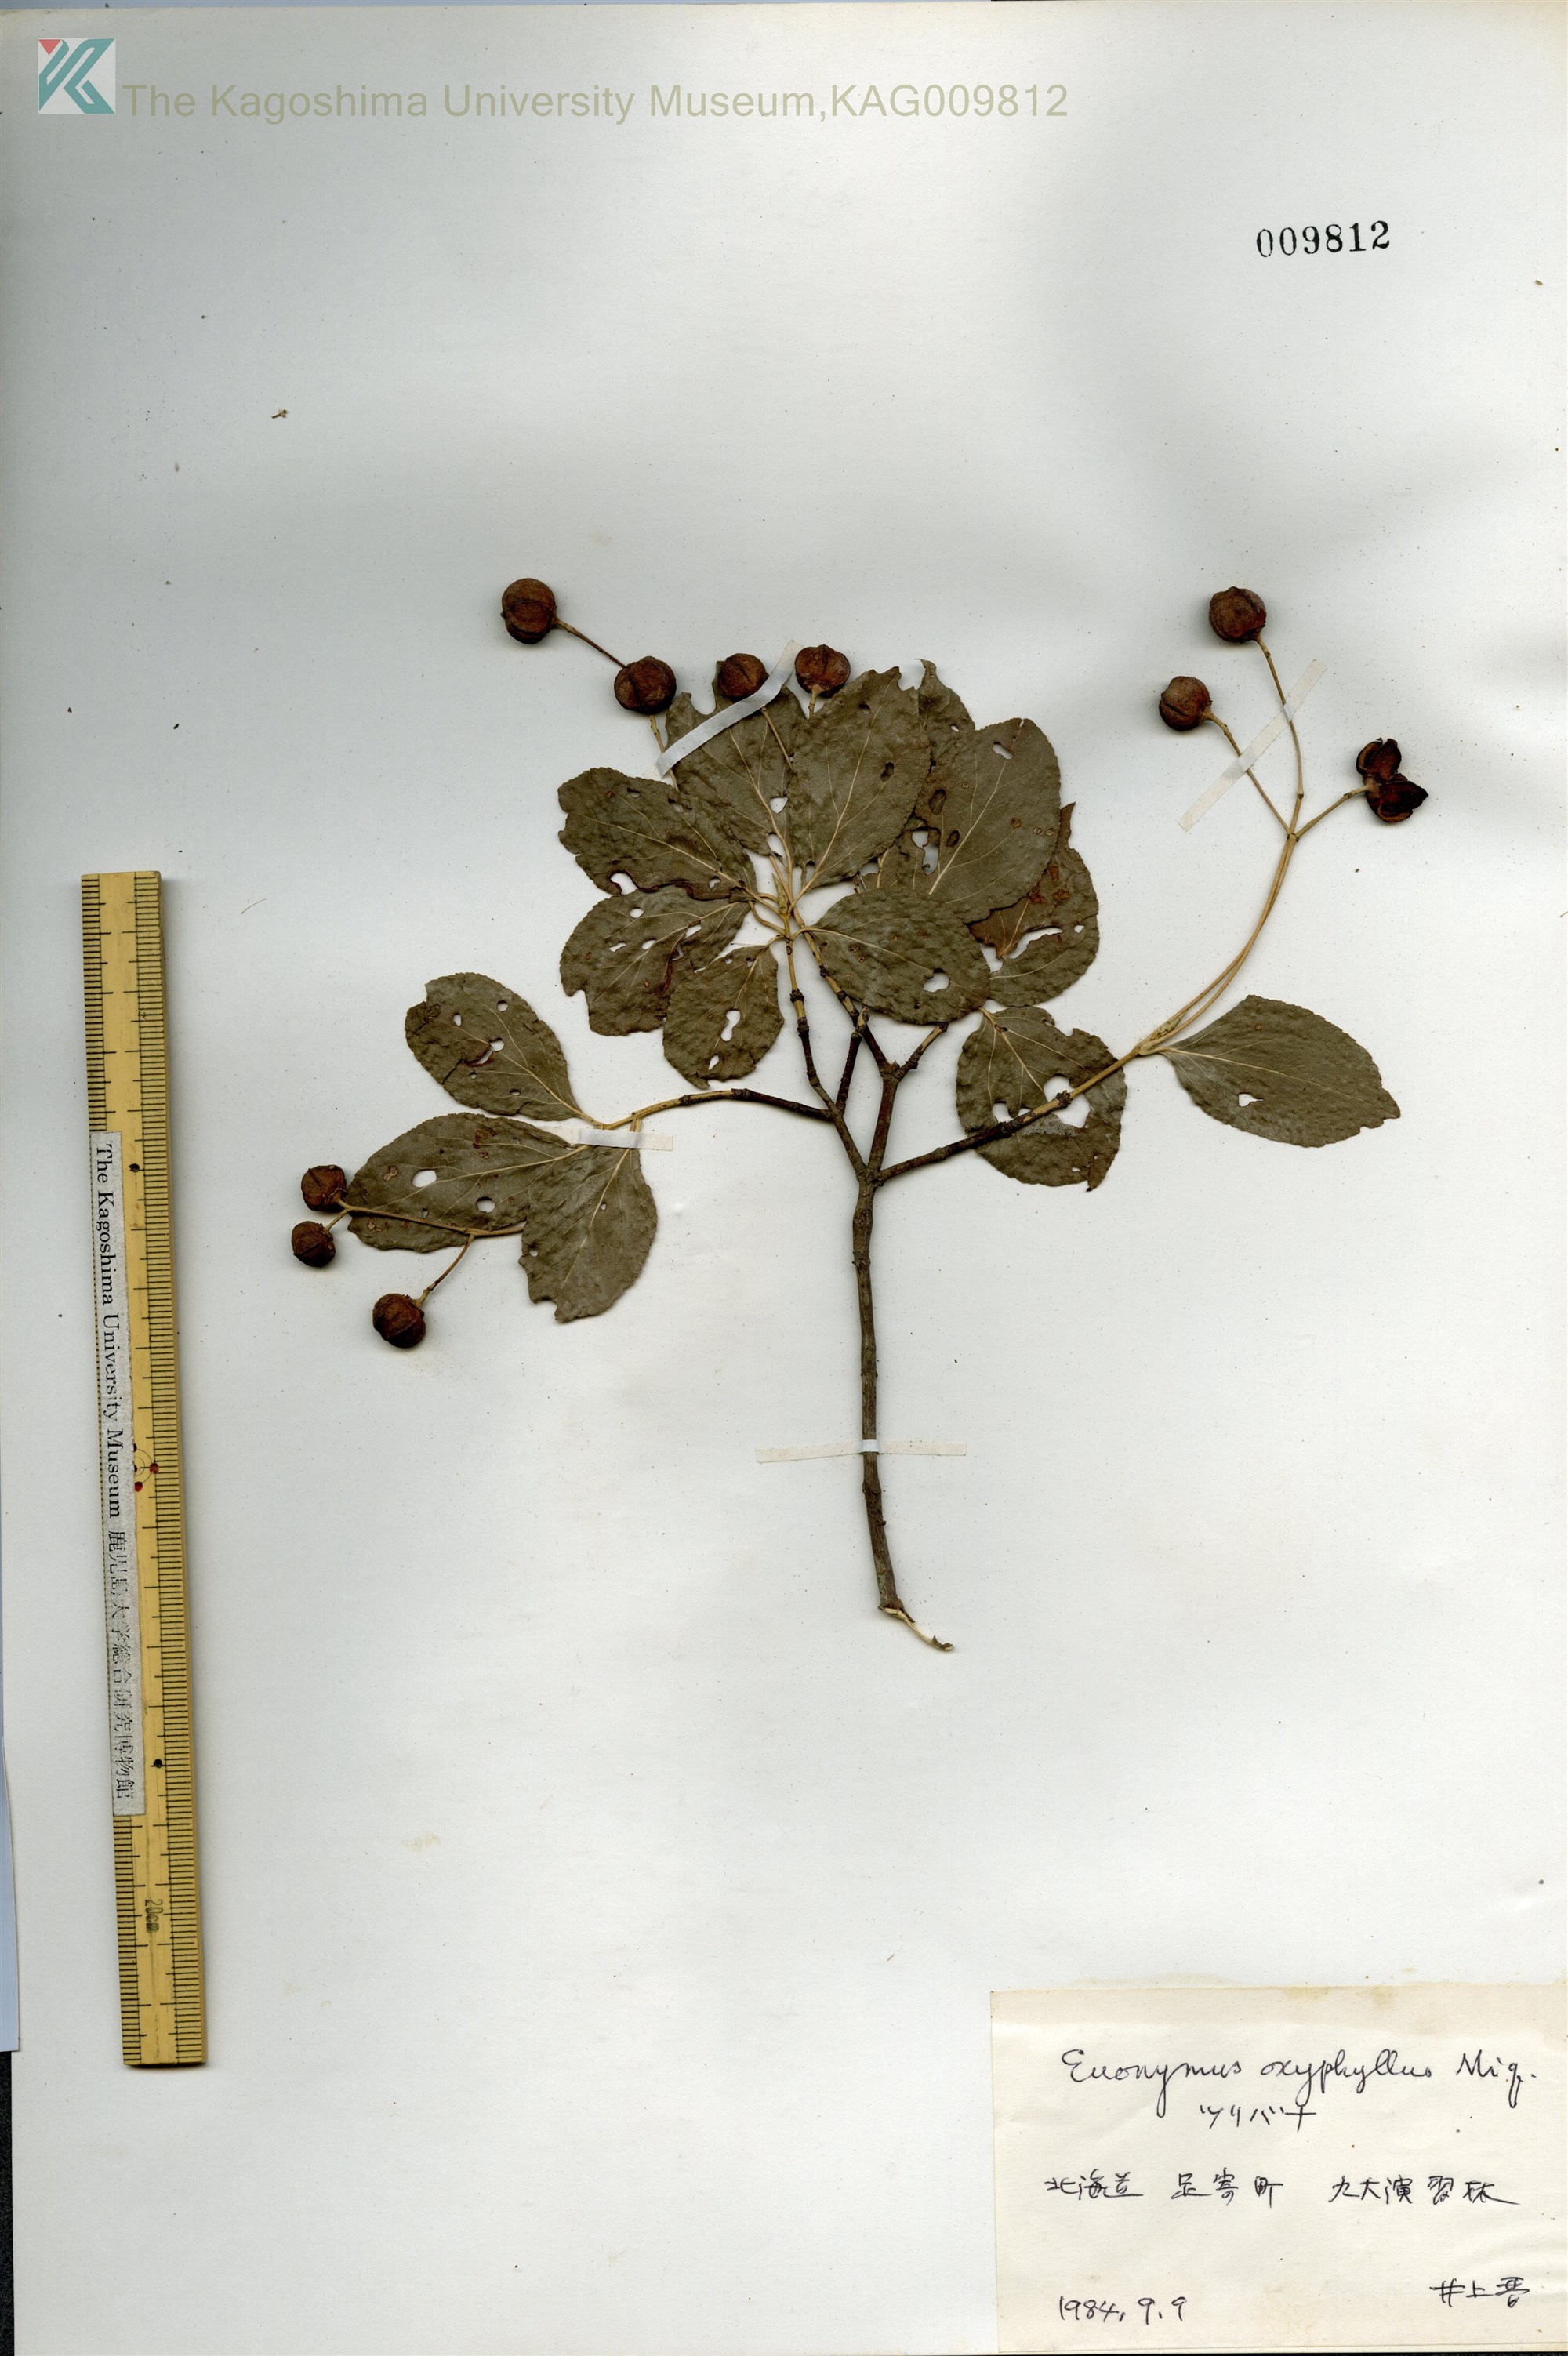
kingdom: Plantae
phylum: Tracheophyta
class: Magnoliopsida
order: Celastrales
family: Celastraceae
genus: Euonymus
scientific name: Euonymus oxyphyllus
